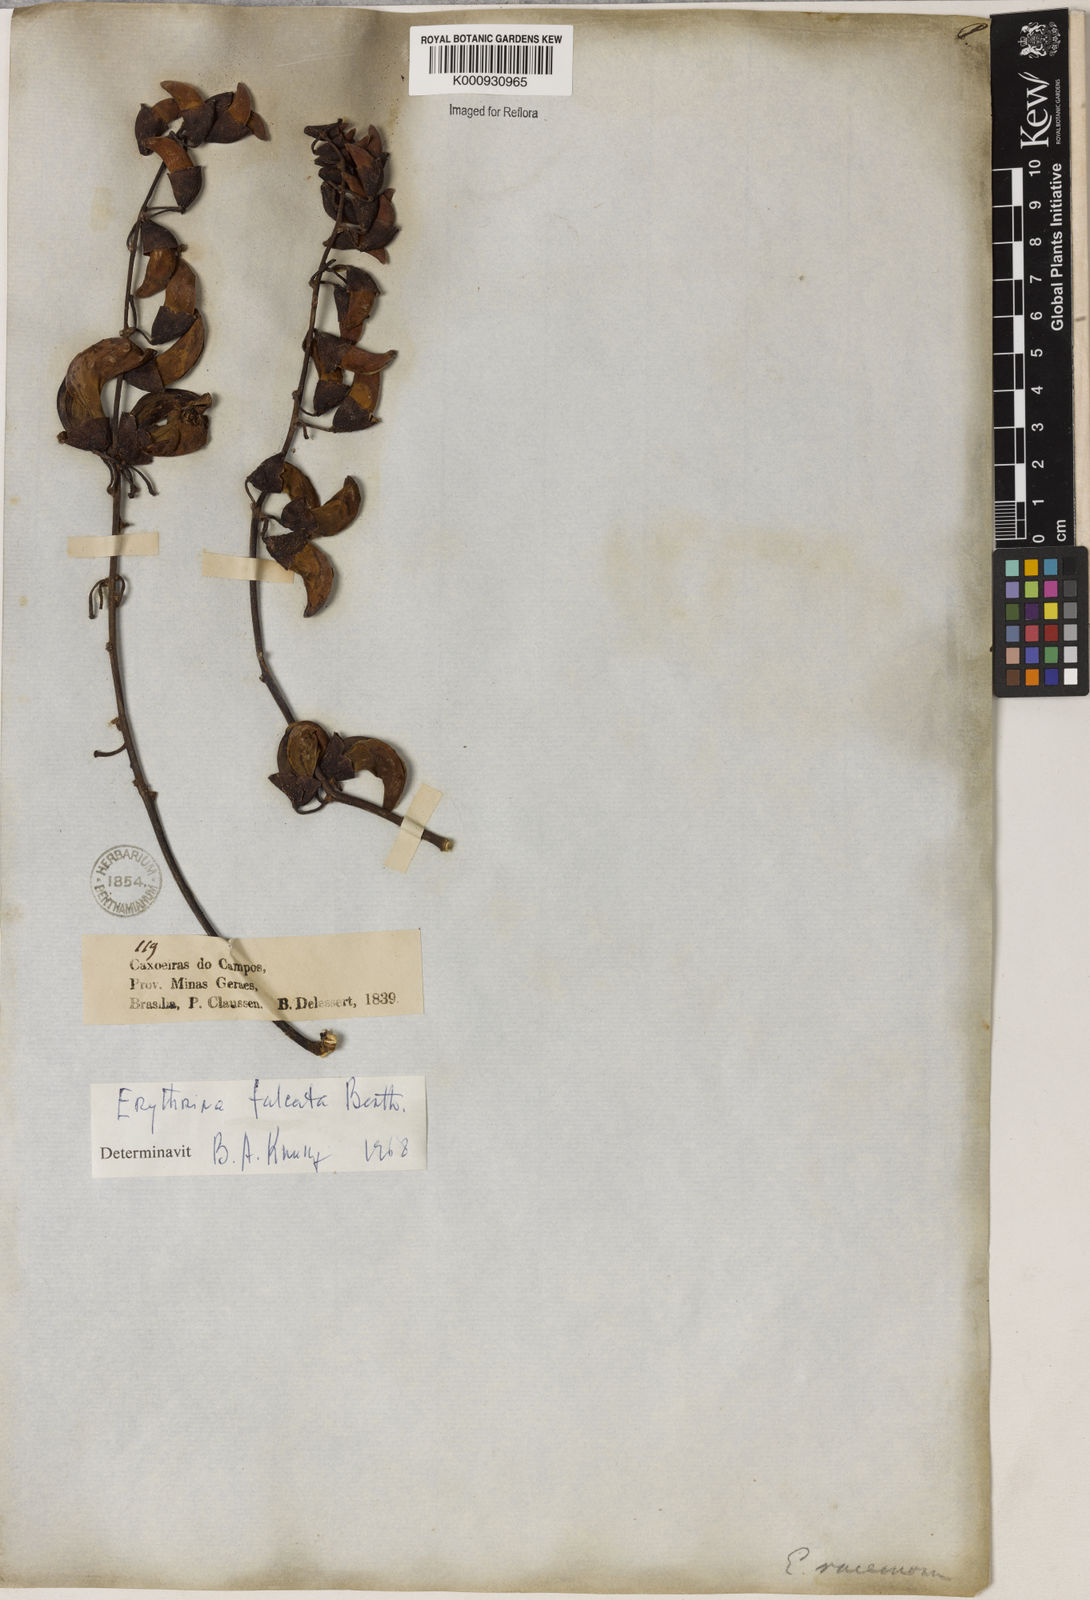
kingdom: Plantae
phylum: Tracheophyta
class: Magnoliopsida
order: Fabales
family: Fabaceae
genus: Erythrina
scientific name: Erythrina falcata
